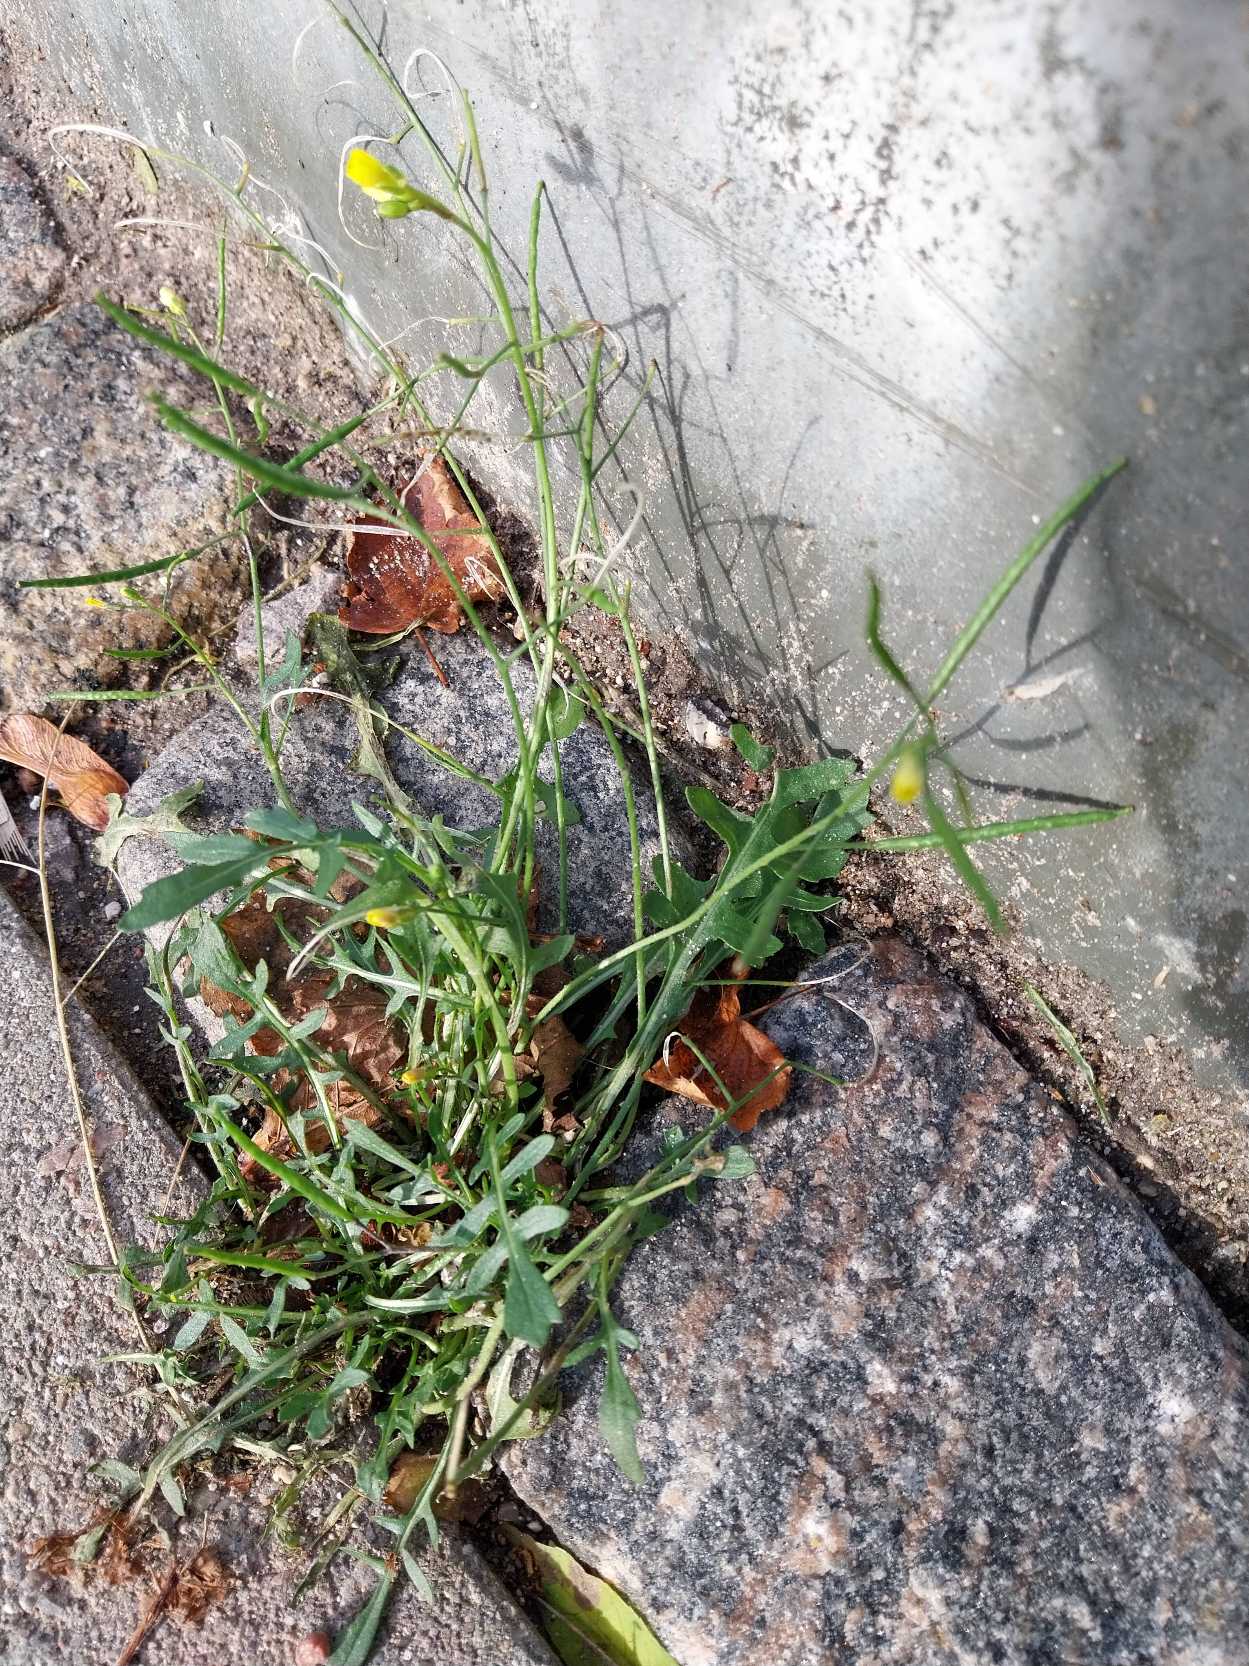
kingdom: Plantae
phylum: Tracheophyta
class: Magnoliopsida
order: Brassicales
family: Brassicaceae
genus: Diplotaxis
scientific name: Diplotaxis muralis
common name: Mursennep
